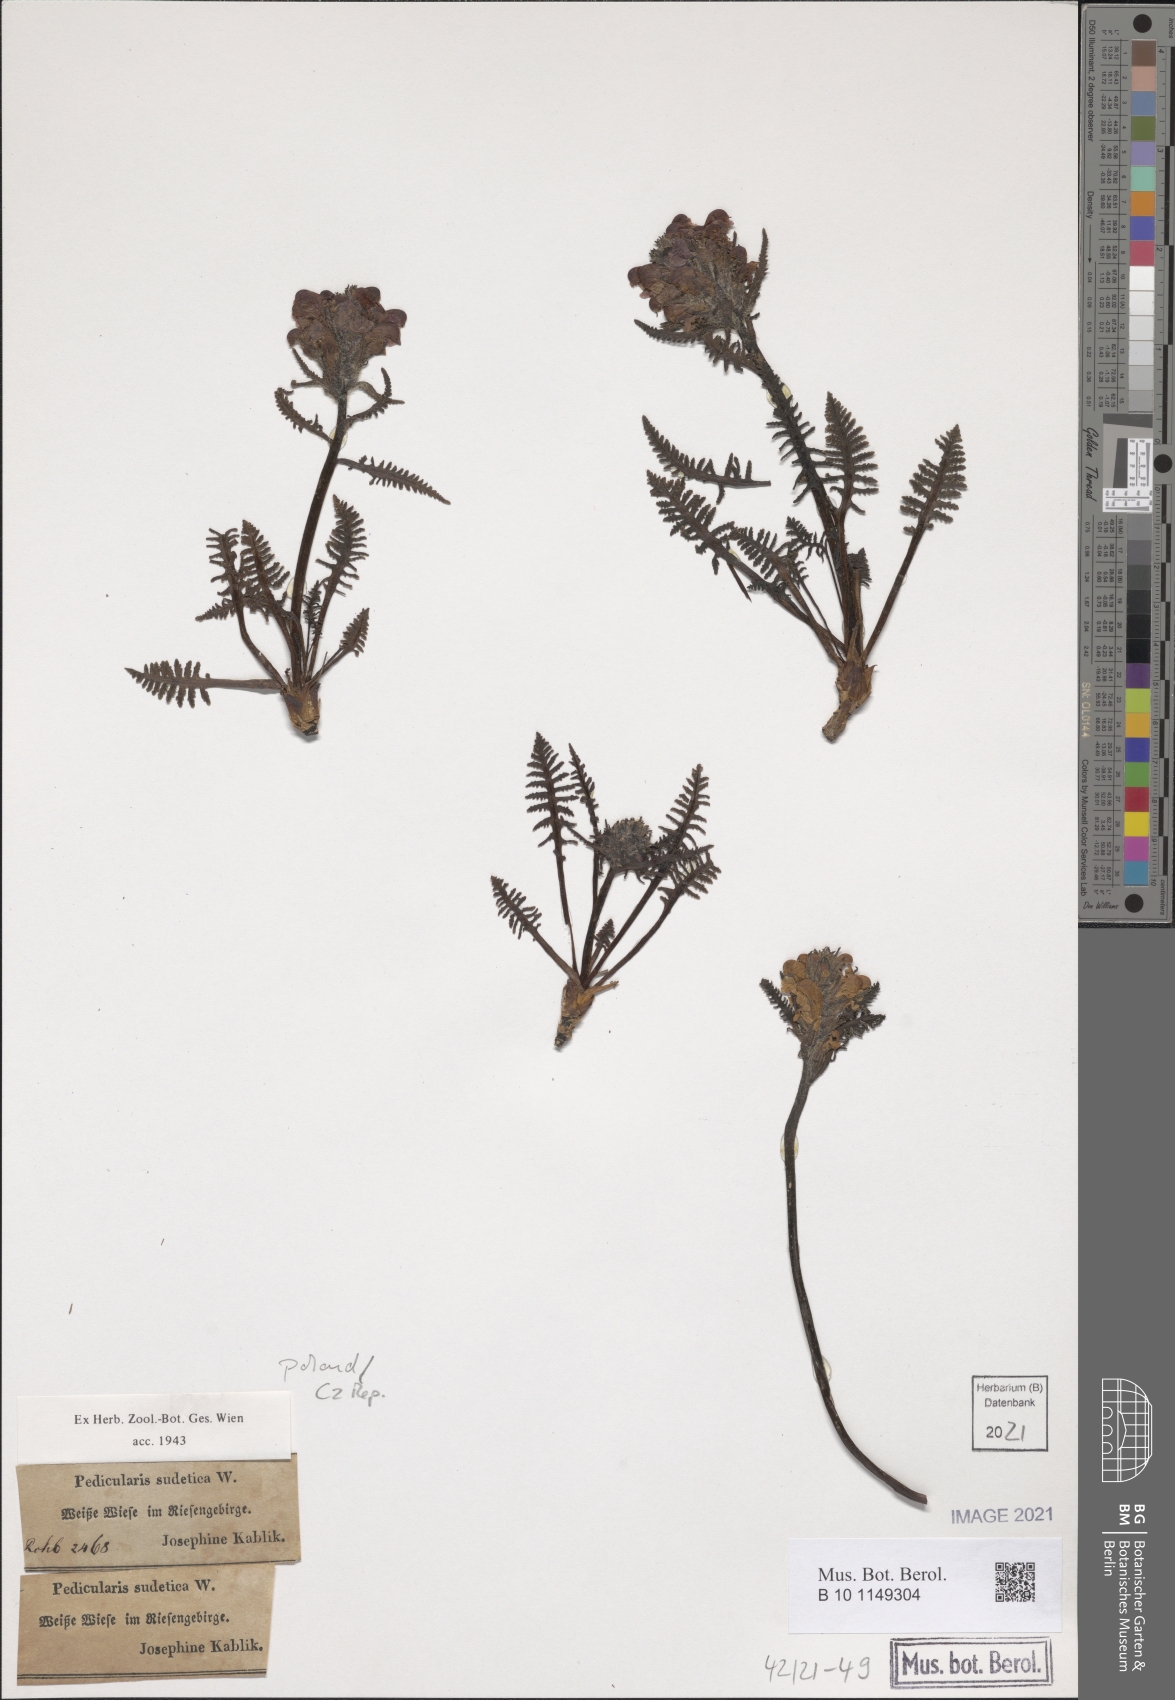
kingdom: Plantae
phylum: Tracheophyta
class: Magnoliopsida
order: Lamiales
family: Orobanchaceae
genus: Pedicularis
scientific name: Pedicularis sudetica
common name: Sudeten lousewort
